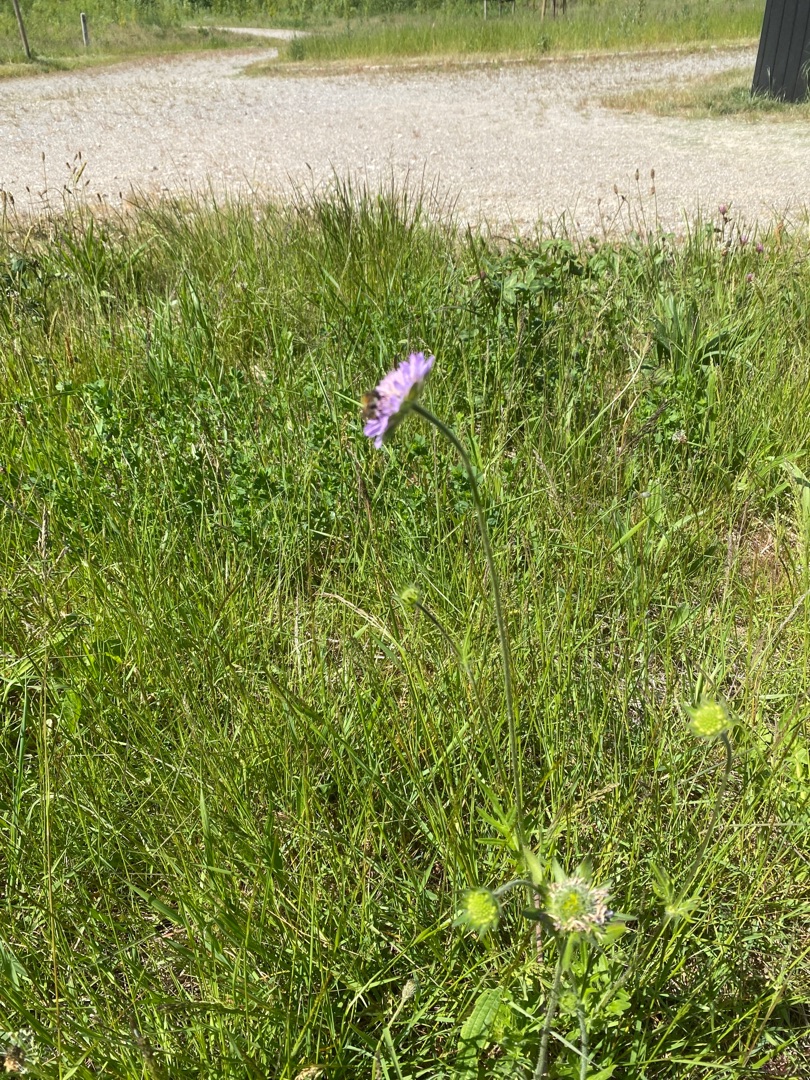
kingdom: Plantae
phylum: Tracheophyta
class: Magnoliopsida
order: Dipsacales
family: Caprifoliaceae
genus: Knautia
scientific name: Knautia arvensis
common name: Blåhat
